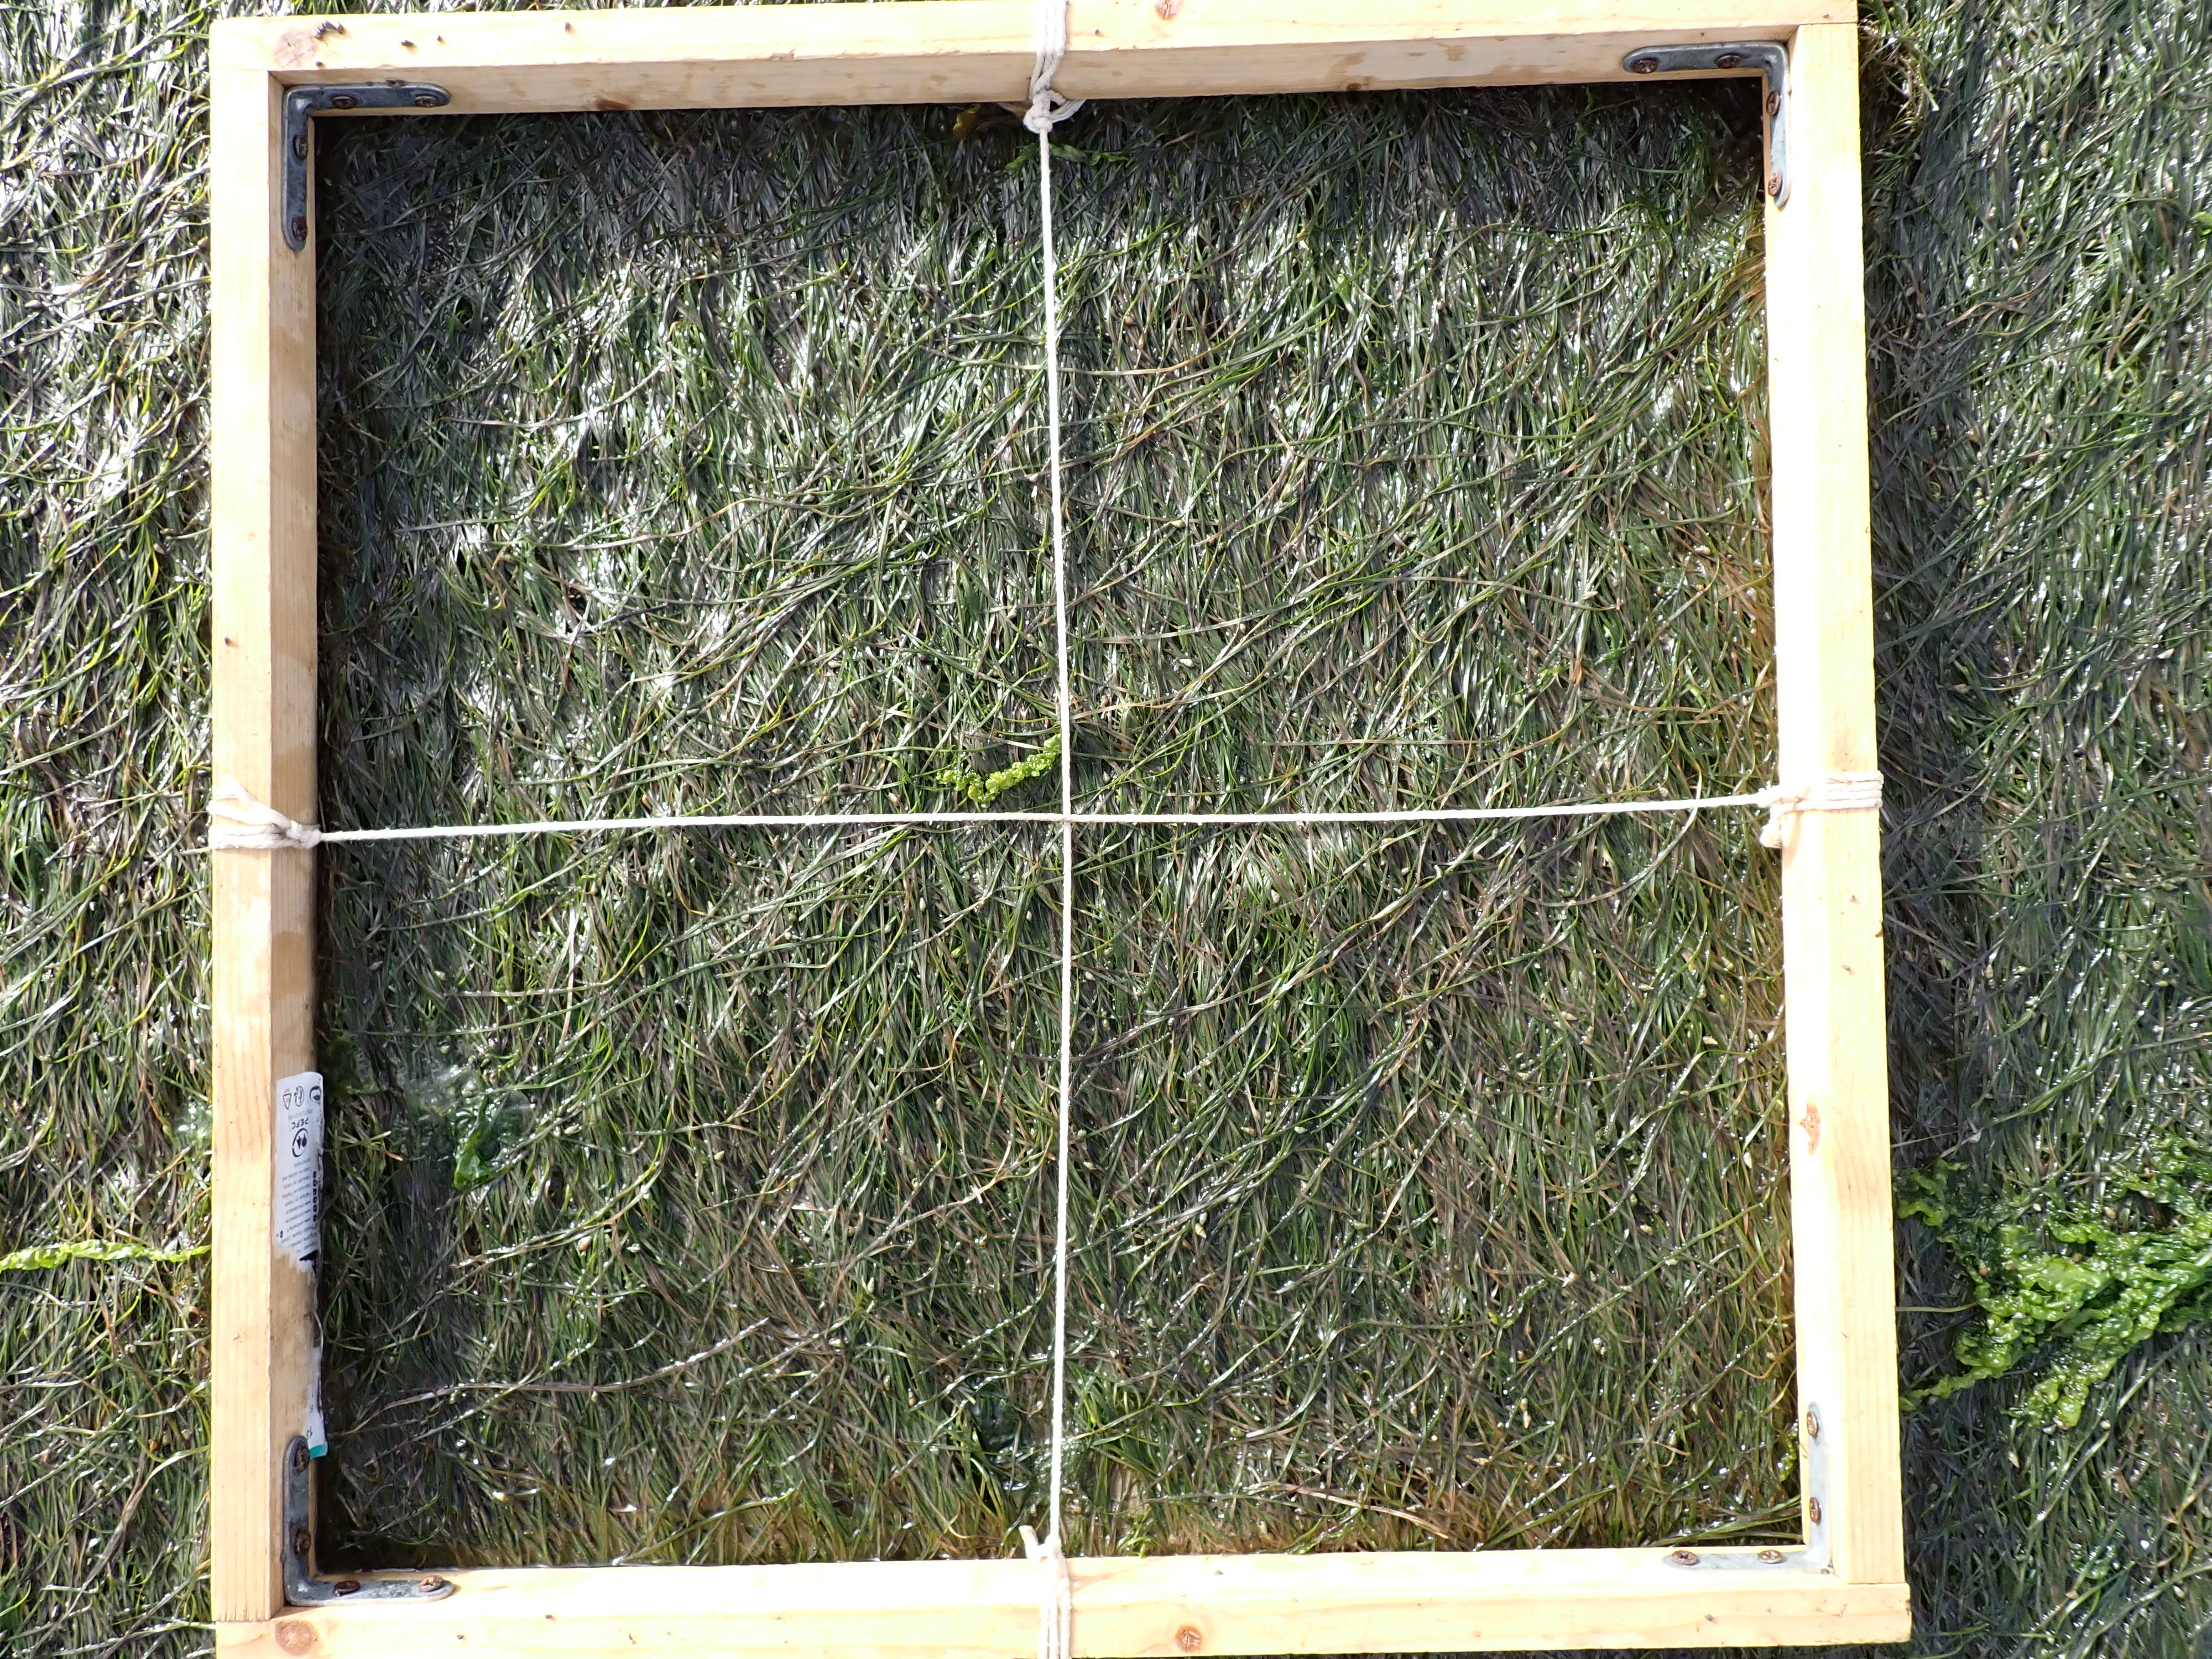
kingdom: Plantae
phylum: Chlorophyta
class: Ulvophyceae
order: Ulvales
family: Ulvaceae
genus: Ulva
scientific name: Ulva
